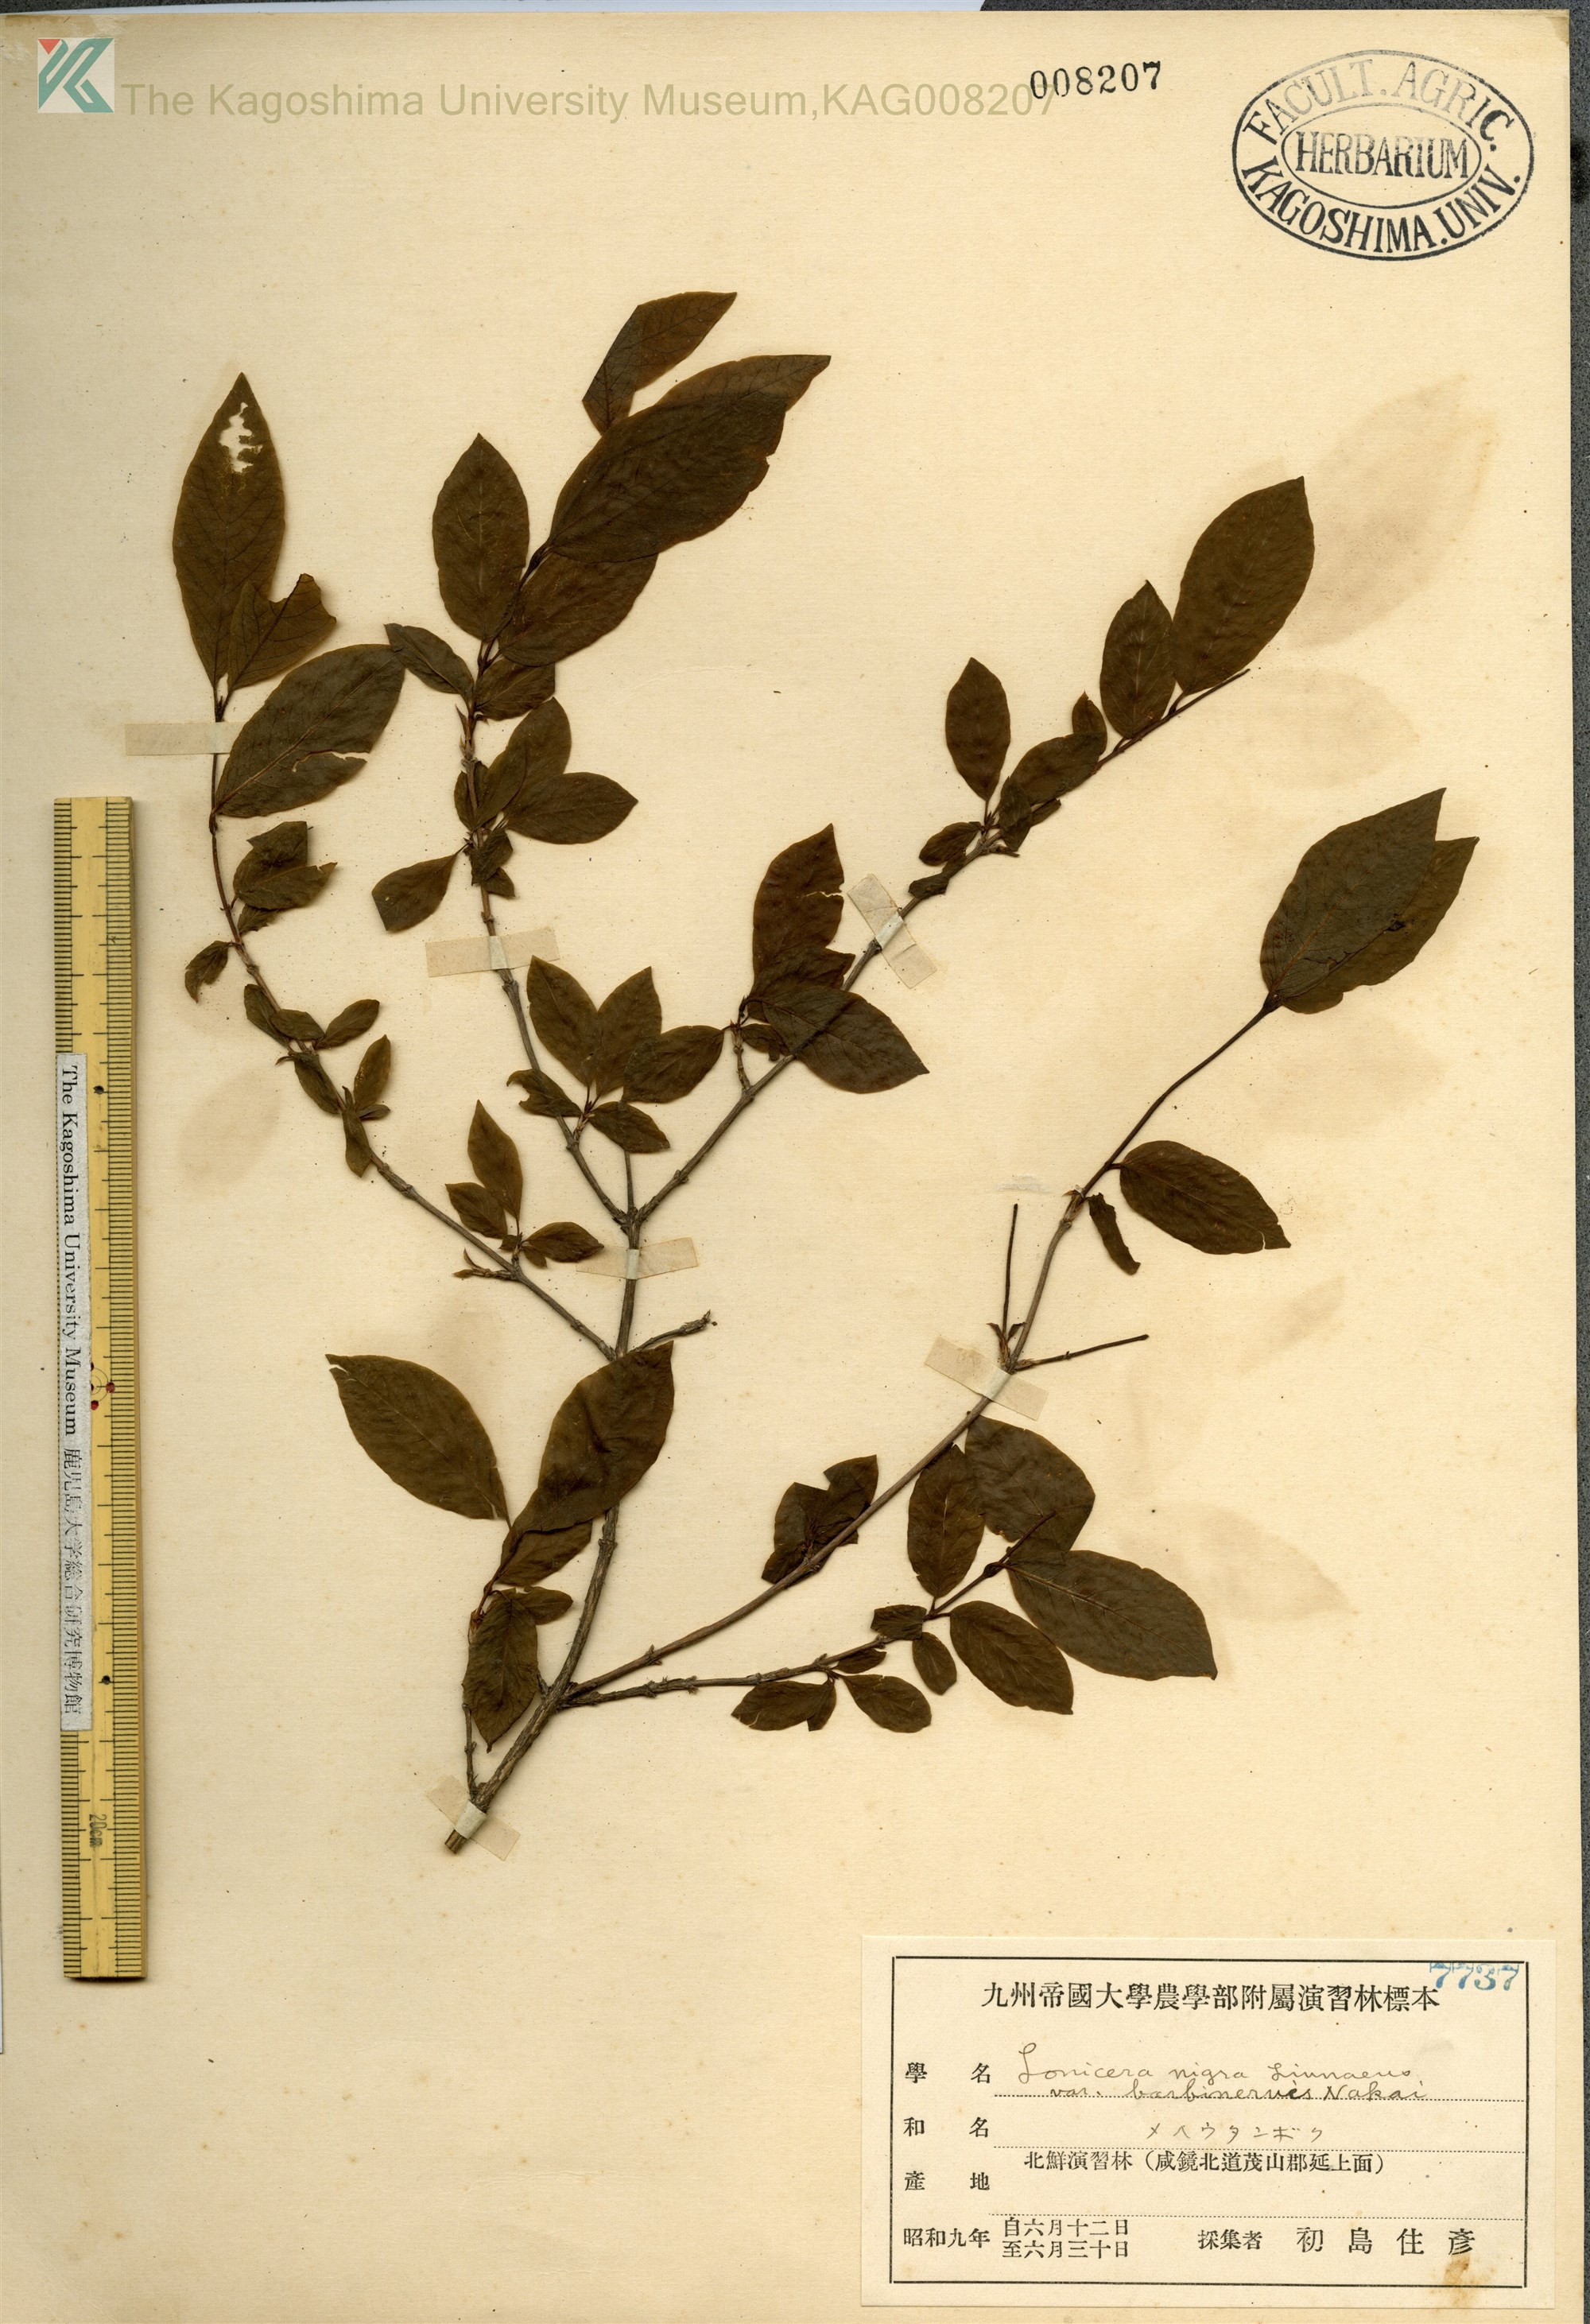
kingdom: Plantae
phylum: Tracheophyta
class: Magnoliopsida
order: Dipsacales
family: Caprifoliaceae
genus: Lonicera
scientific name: Lonicera nigra
